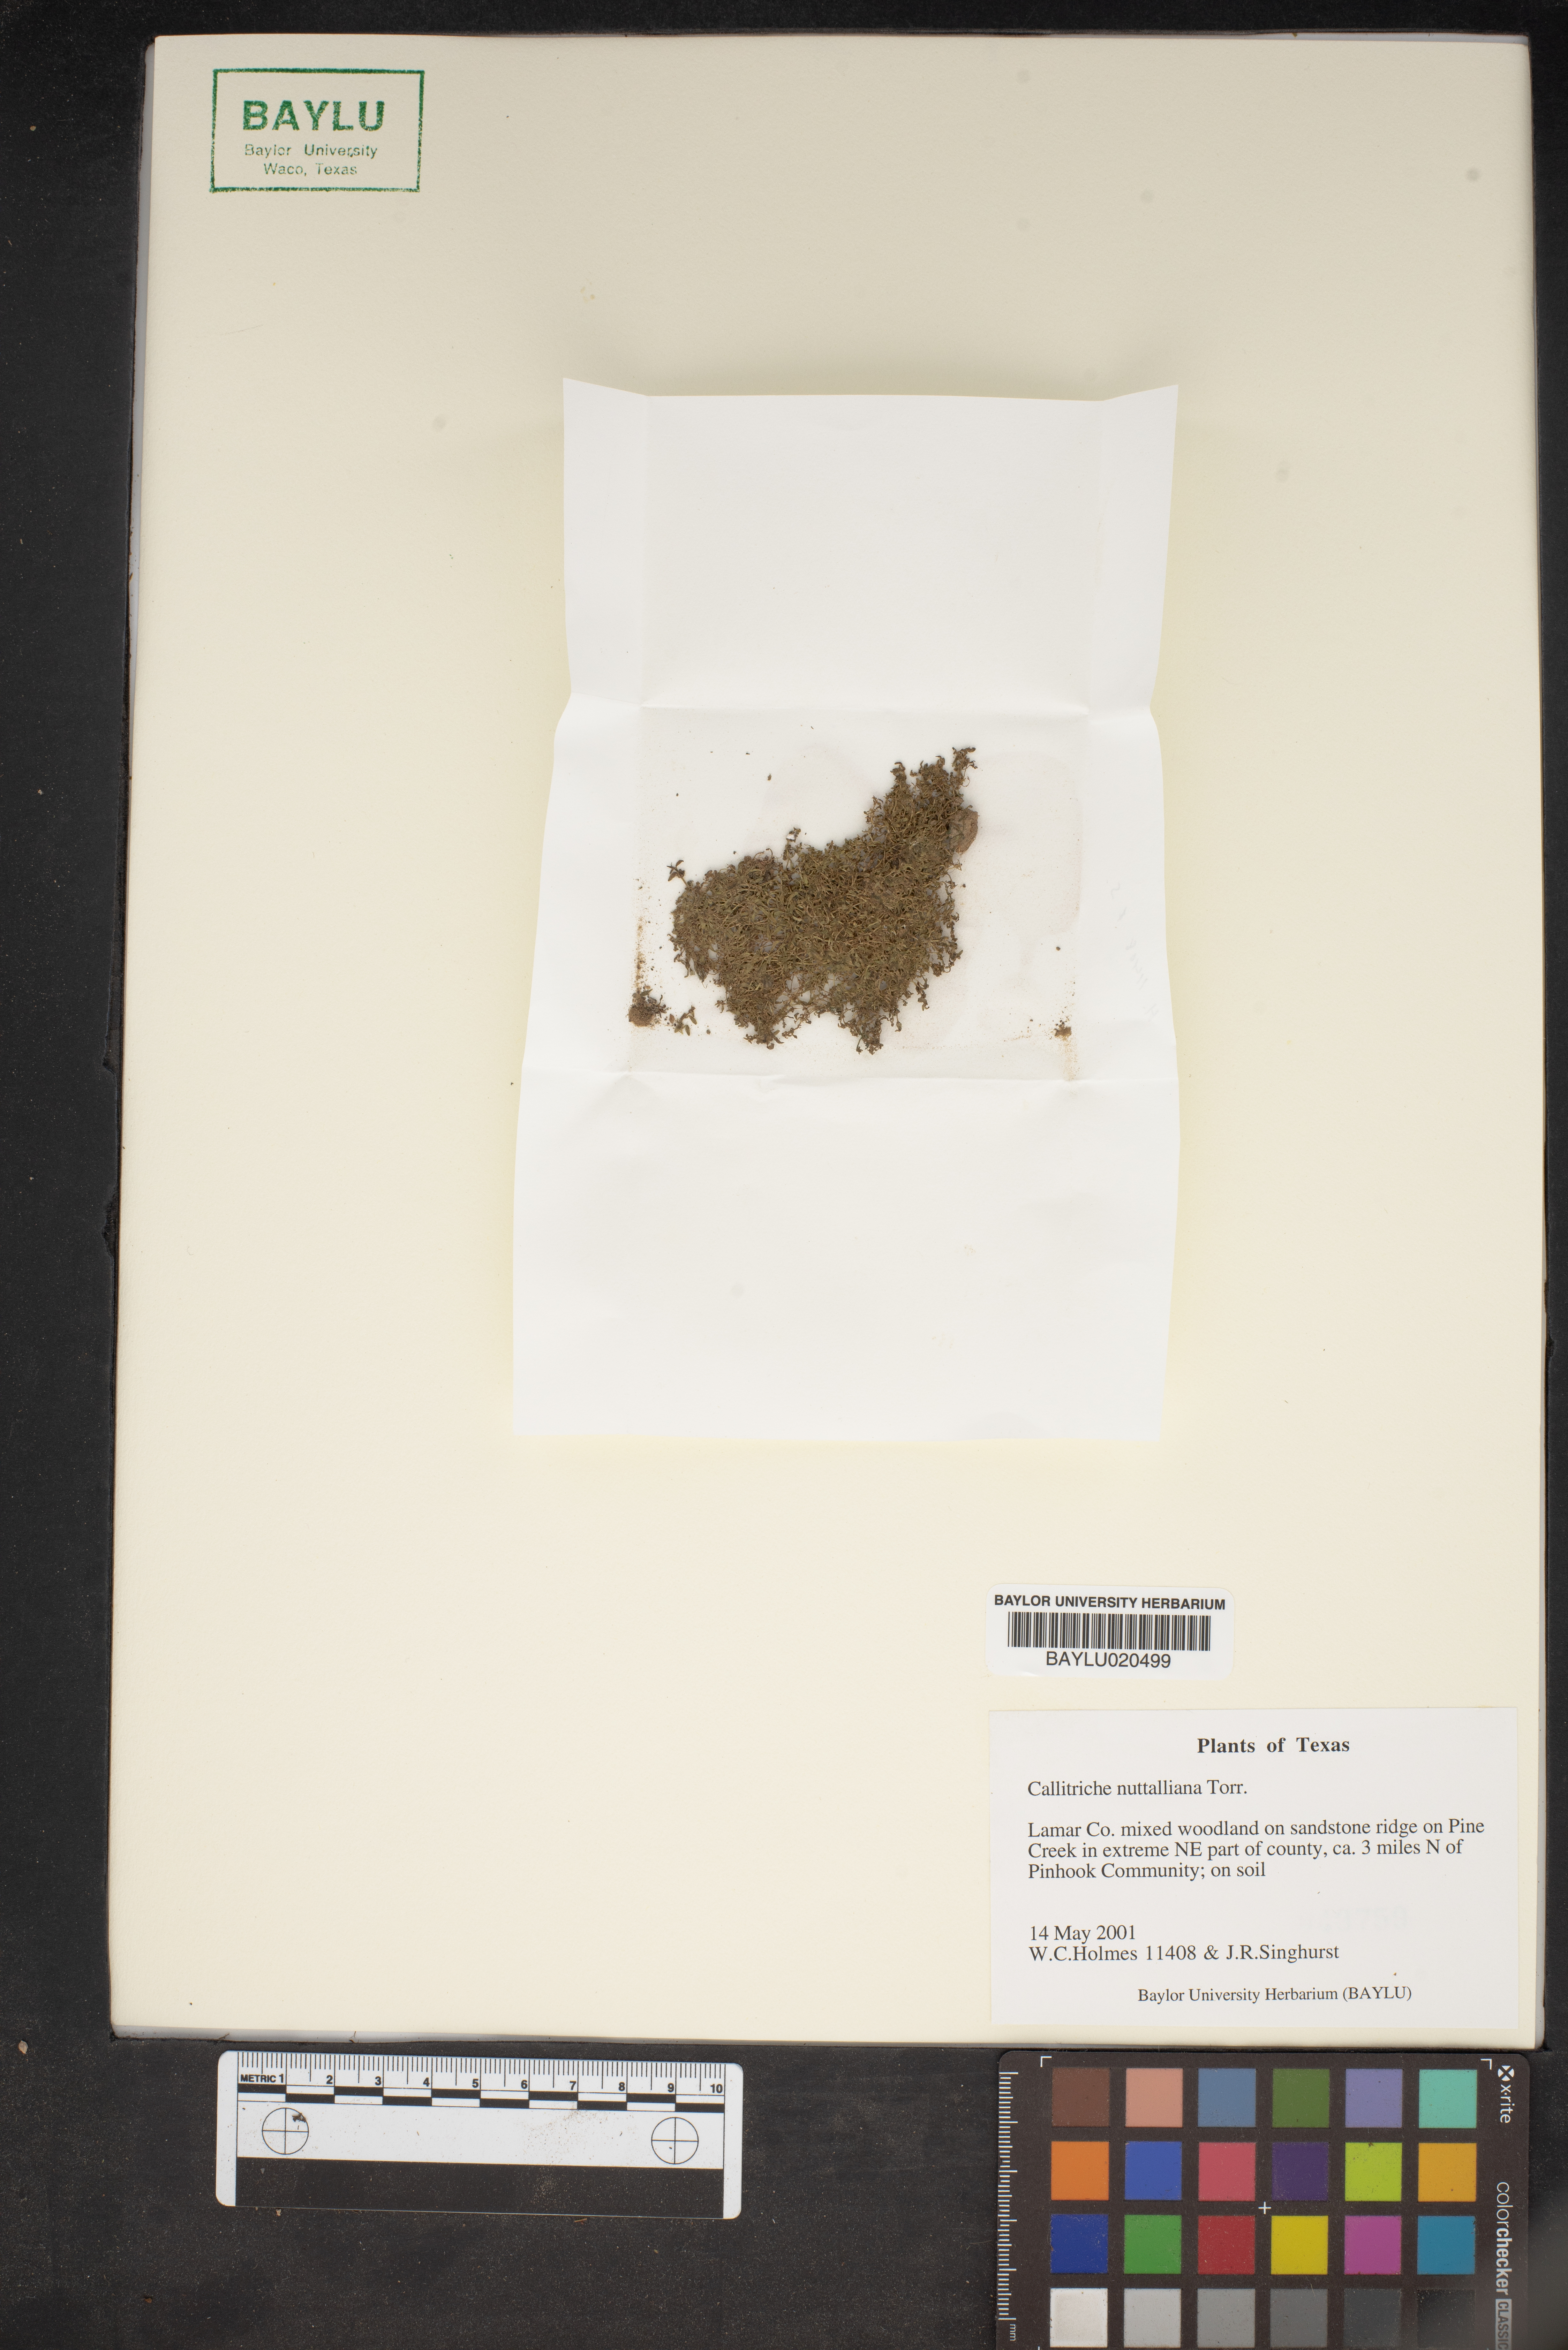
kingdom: Plantae
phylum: Tracheophyta
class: Magnoliopsida
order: Lamiales
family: Plantaginaceae
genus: Callitriche
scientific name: Callitriche pedunculosa
